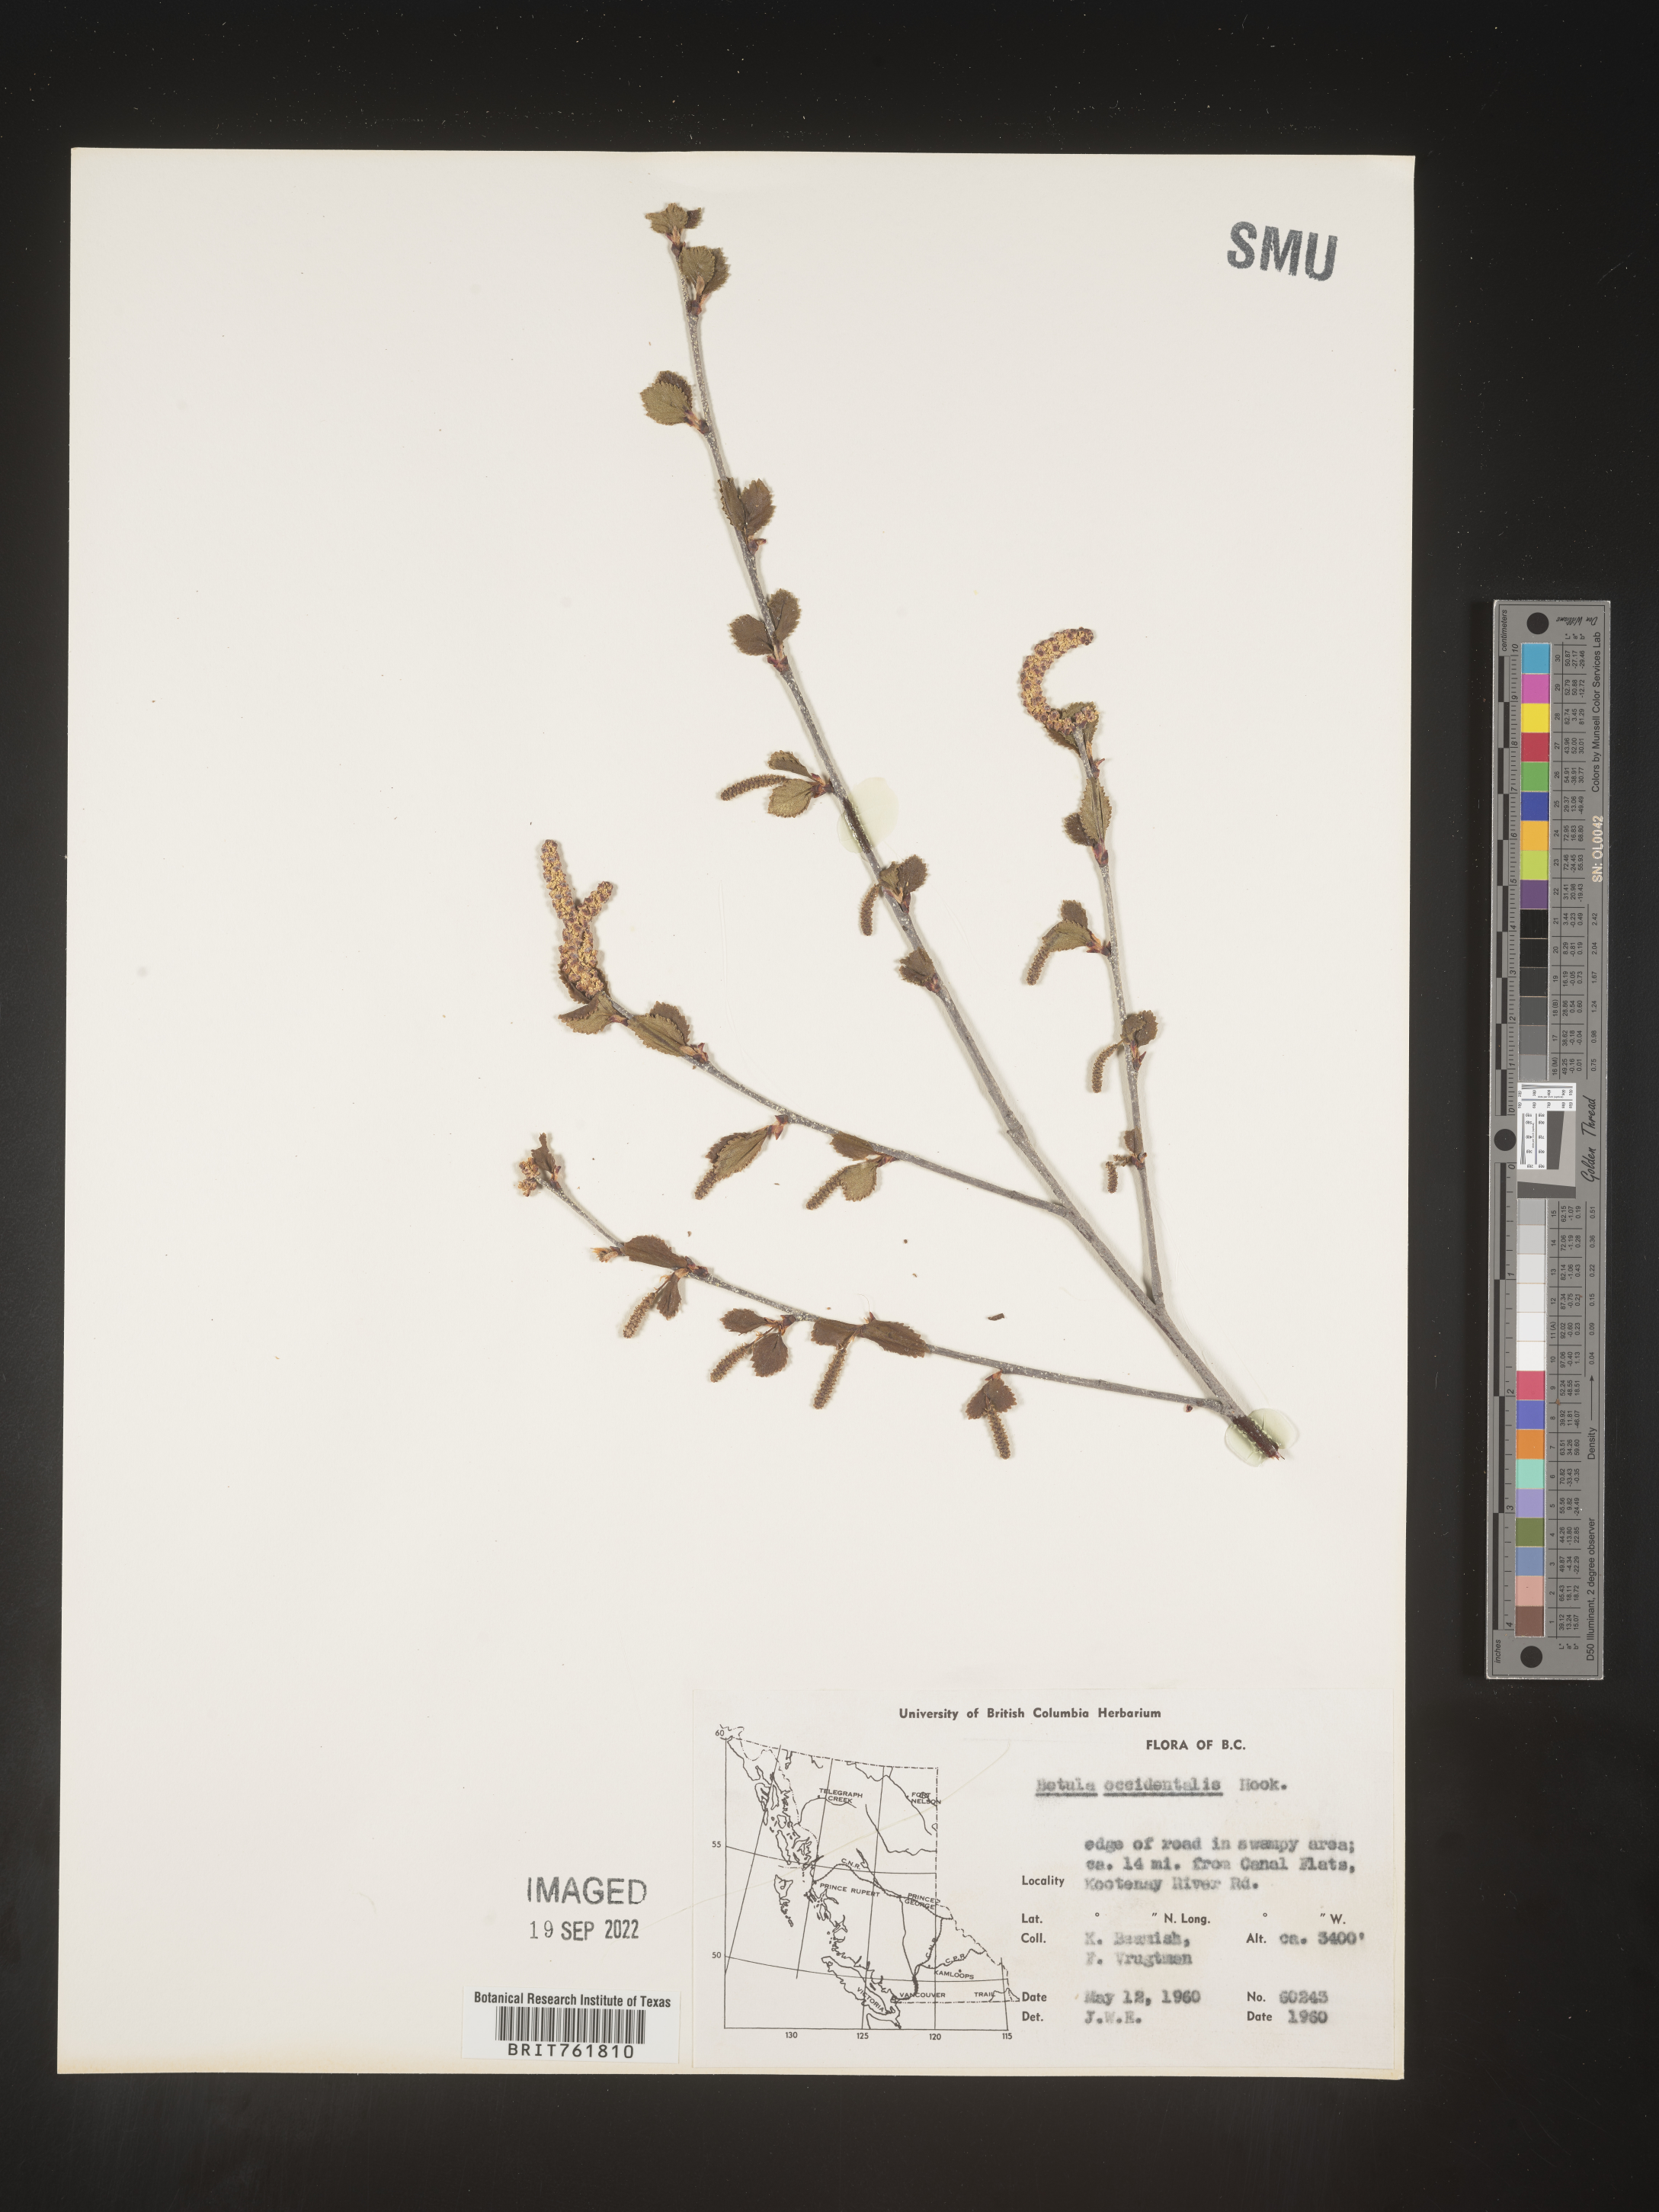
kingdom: Plantae
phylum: Tracheophyta
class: Magnoliopsida
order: Fagales
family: Betulaceae
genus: Betula
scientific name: Betula occidentalis
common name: River birch
